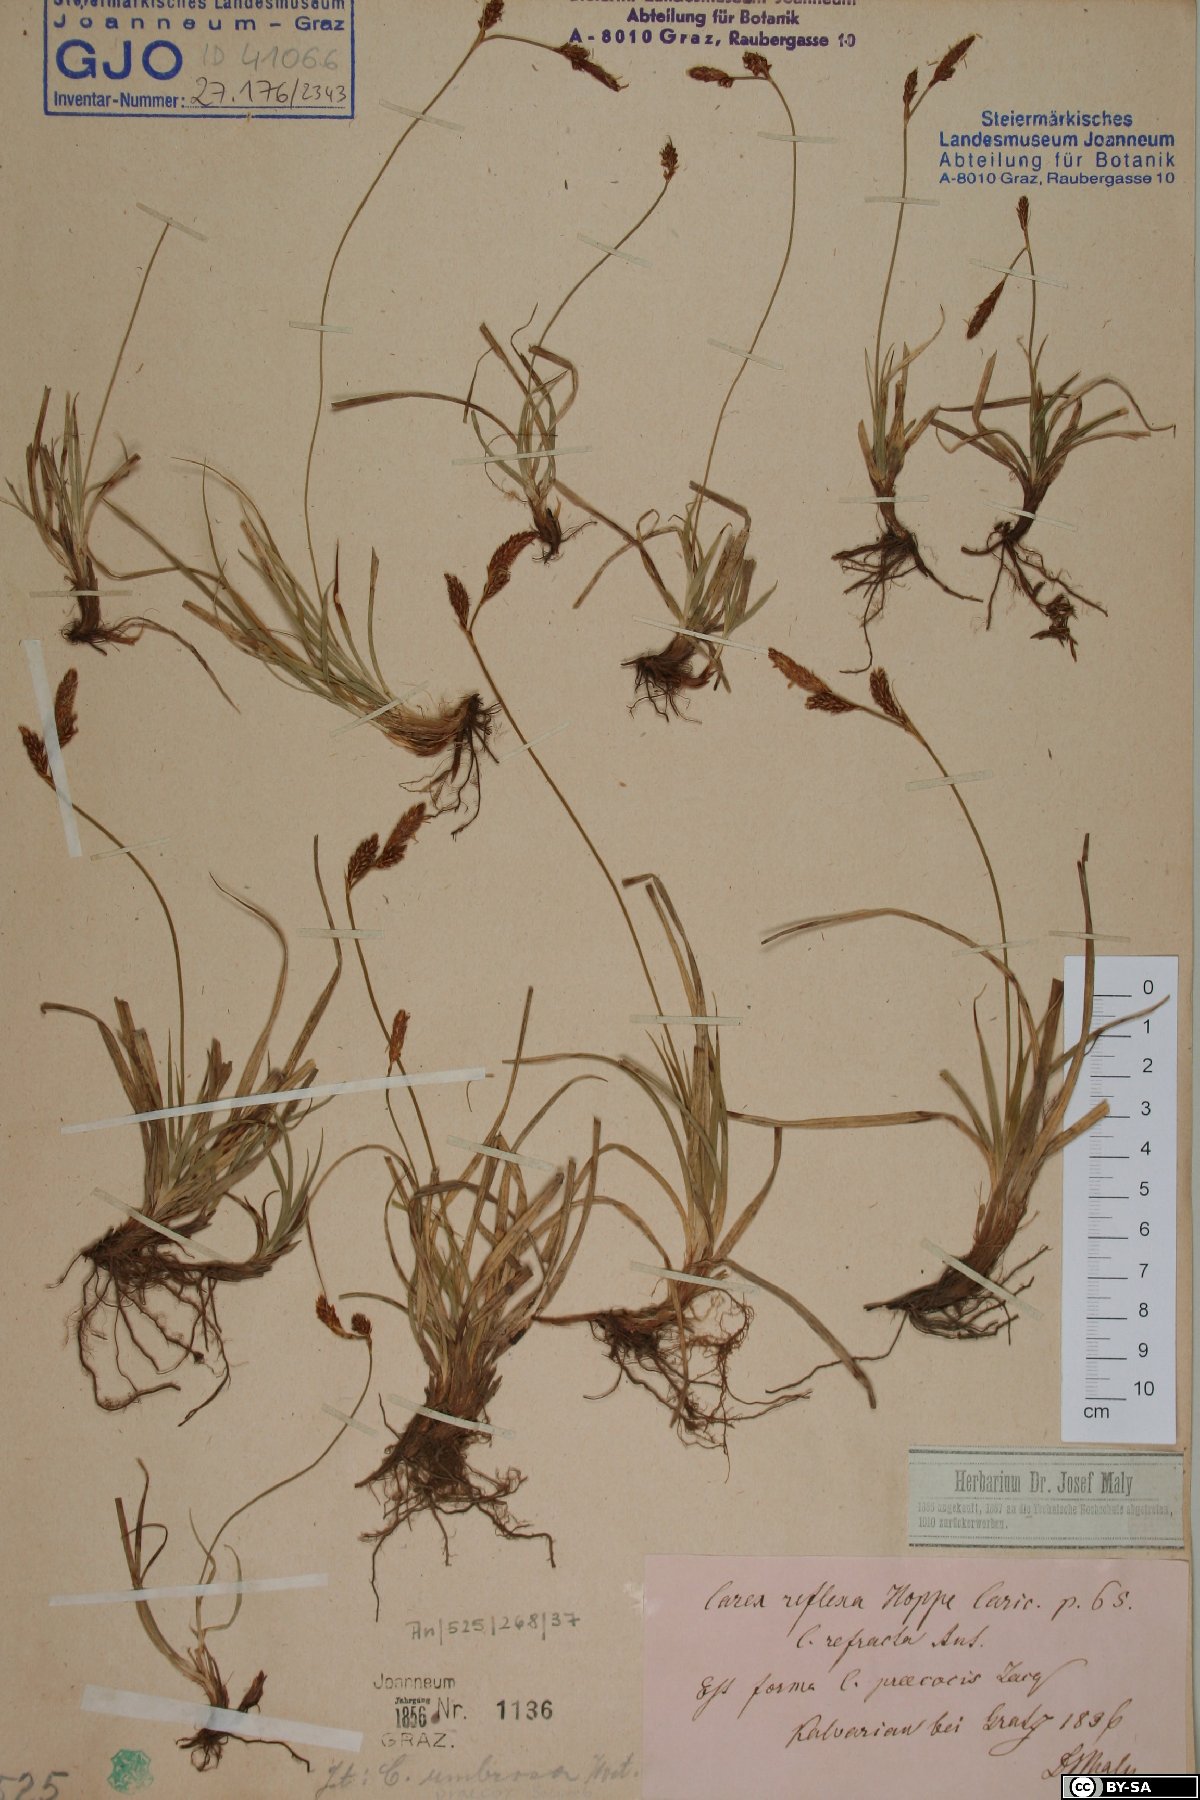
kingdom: Plantae
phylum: Tracheophyta
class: Liliopsida
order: Poales
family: Cyperaceae
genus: Carex
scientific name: Carex caryophyllea
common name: Spring sedge
